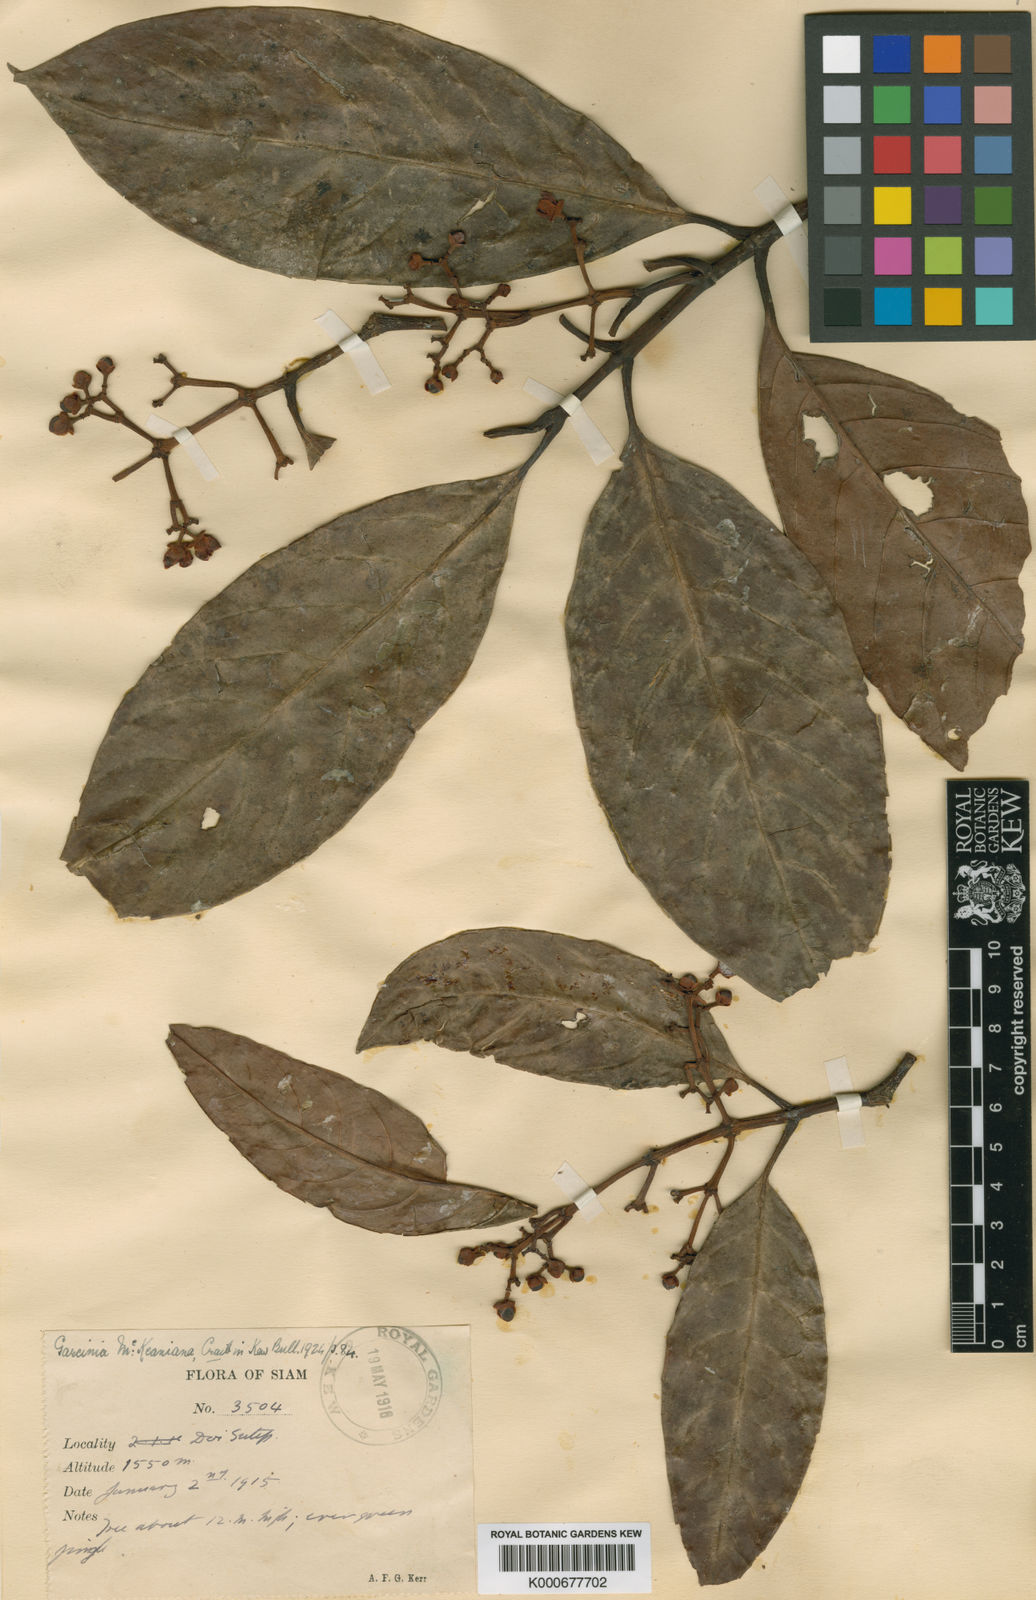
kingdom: Plantae
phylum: Tracheophyta
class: Magnoliopsida
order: Malpighiales
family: Clusiaceae
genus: Garcinia
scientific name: Garcinia mckeaniana
